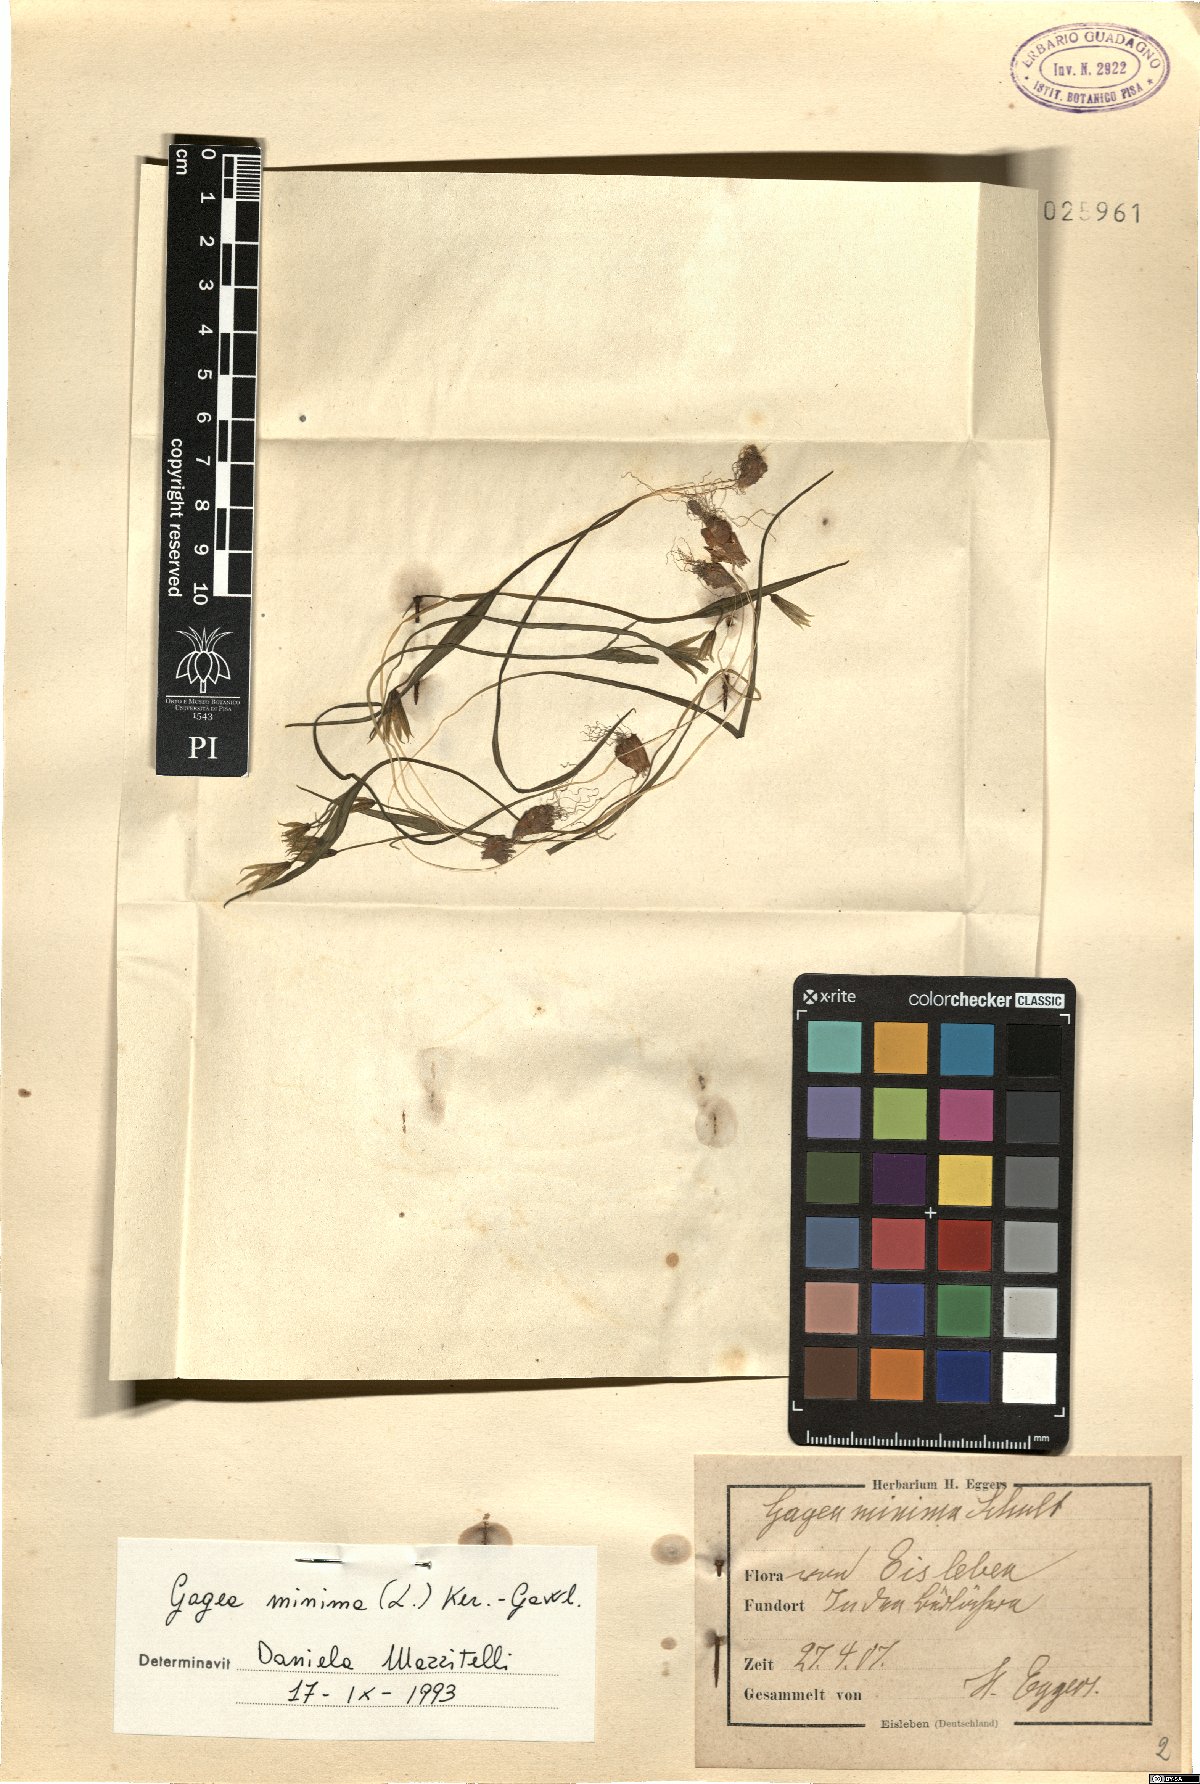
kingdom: Plantae
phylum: Tracheophyta
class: Liliopsida
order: Liliales
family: Liliaceae
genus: Gagea
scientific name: Gagea minima
